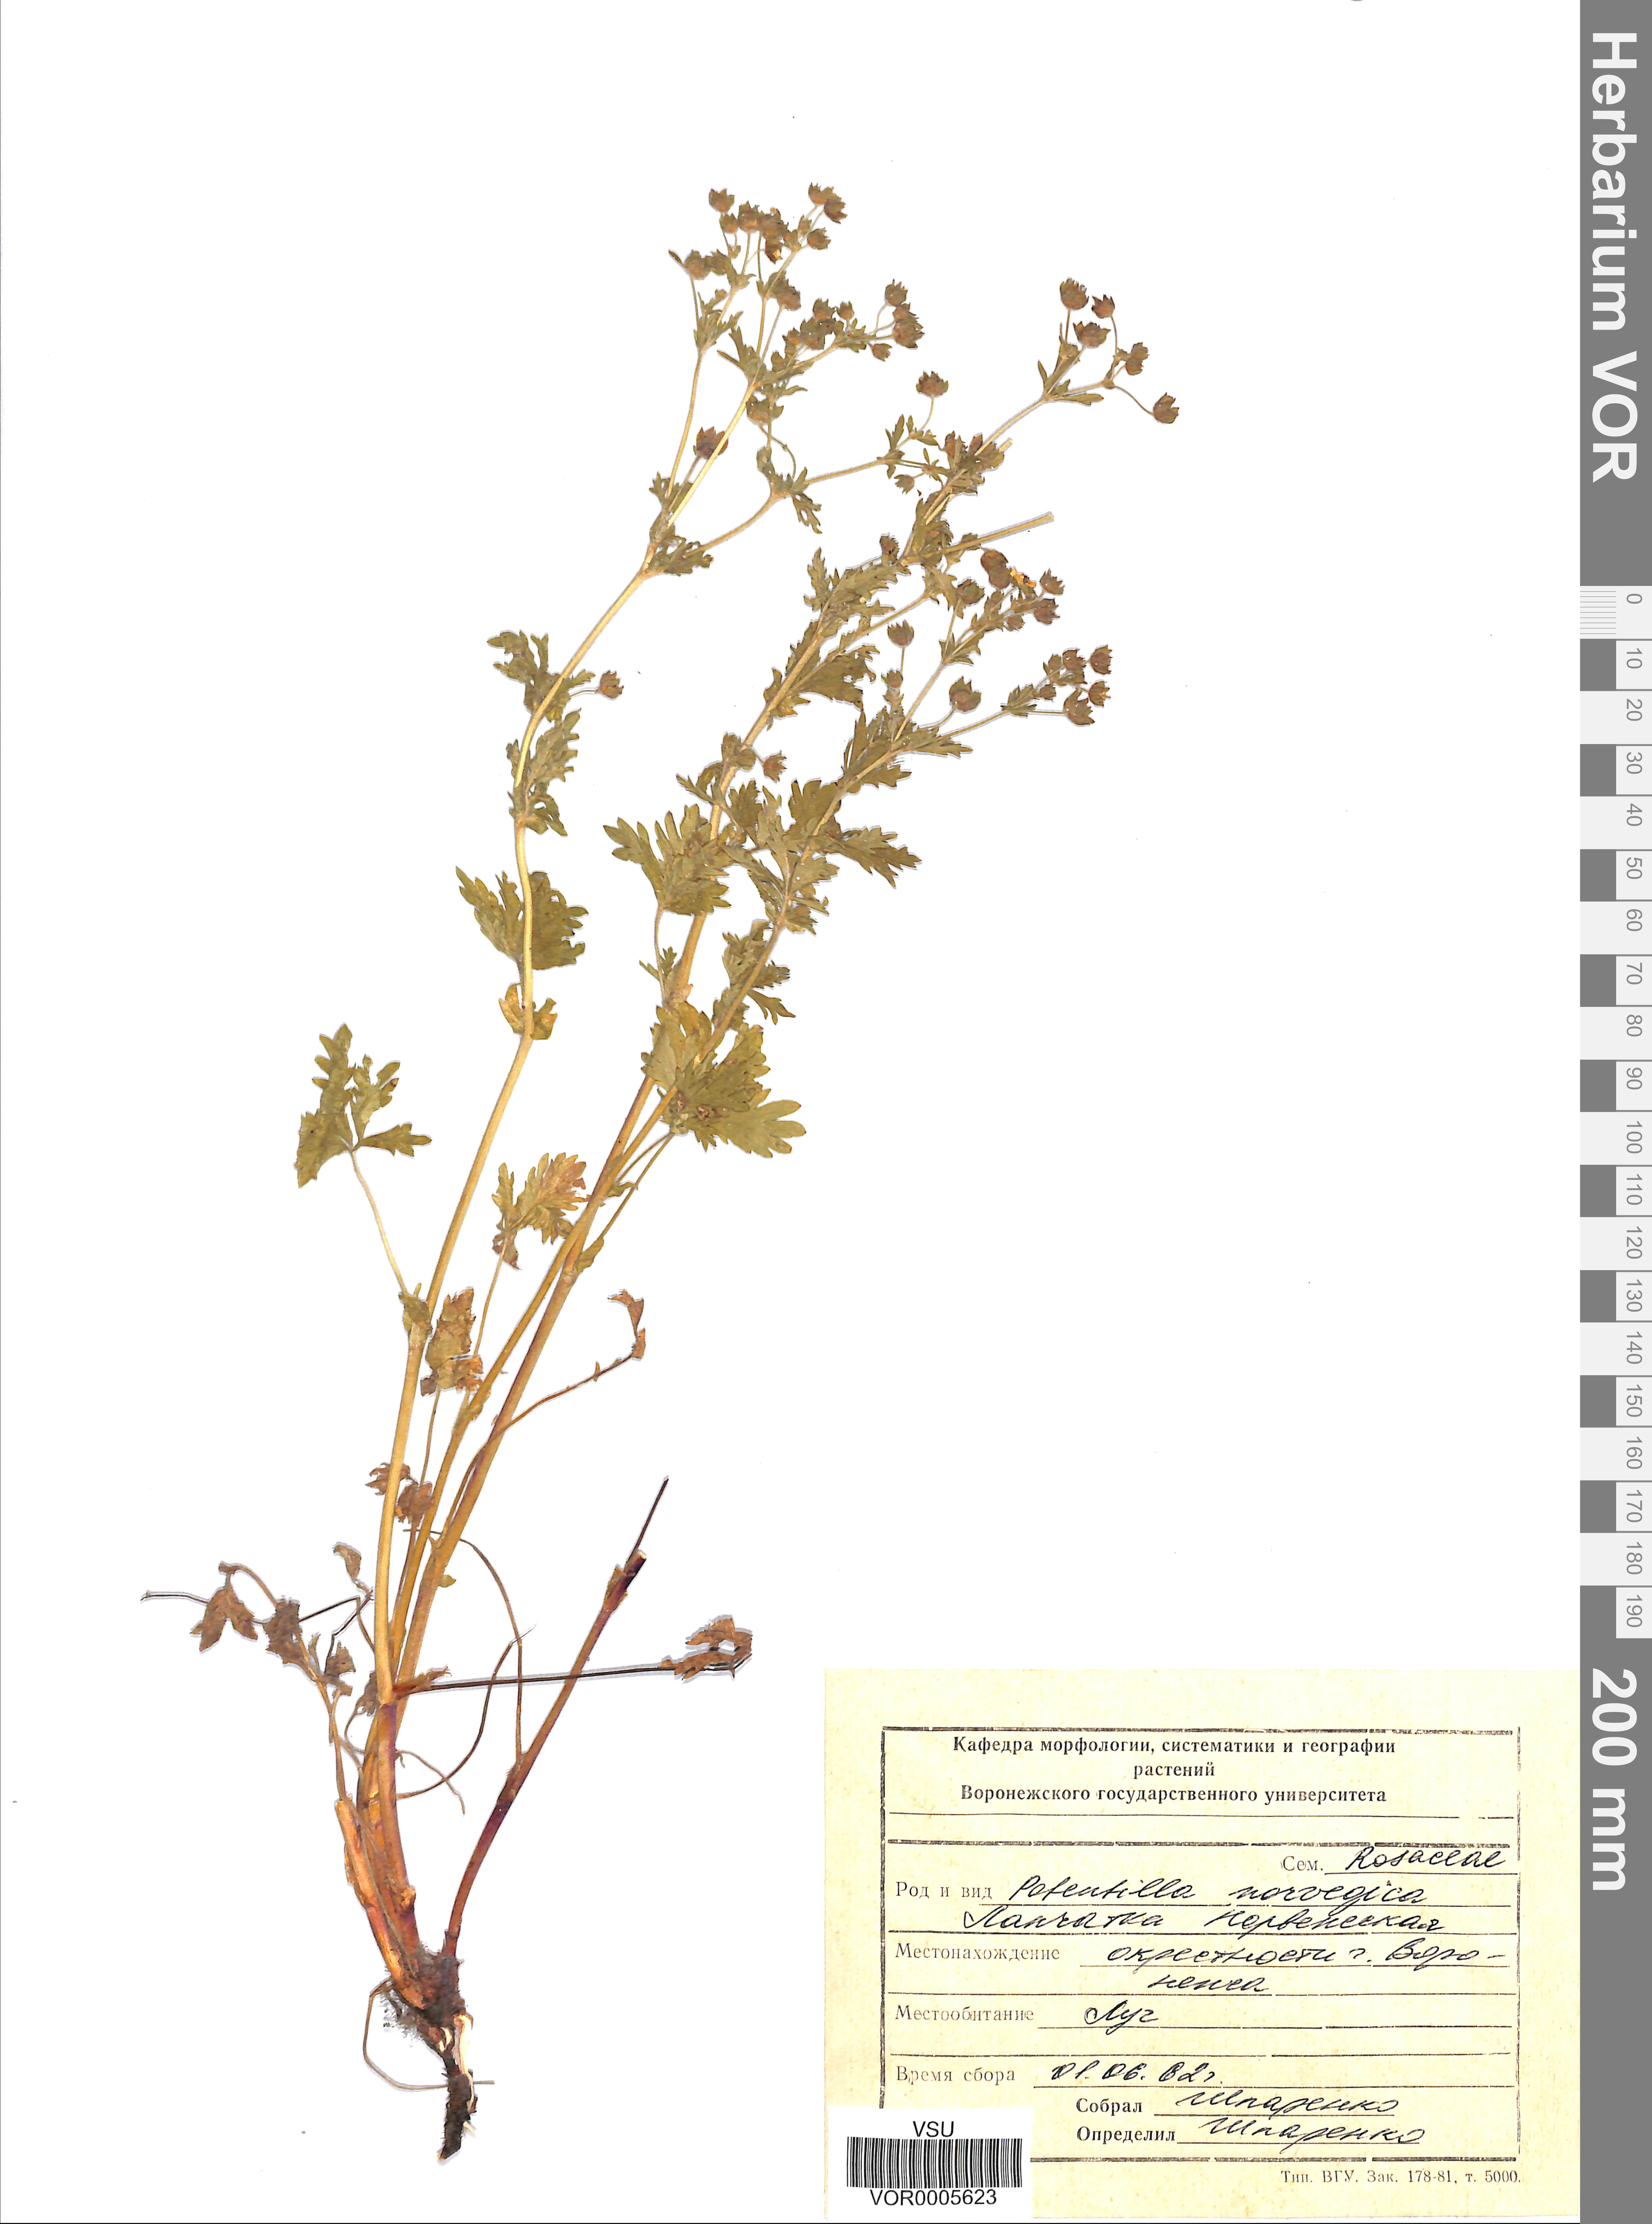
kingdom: Plantae
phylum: Tracheophyta
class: Magnoliopsida
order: Rosales
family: Rosaceae
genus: Potentilla
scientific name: Potentilla erecta
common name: Tormentil
